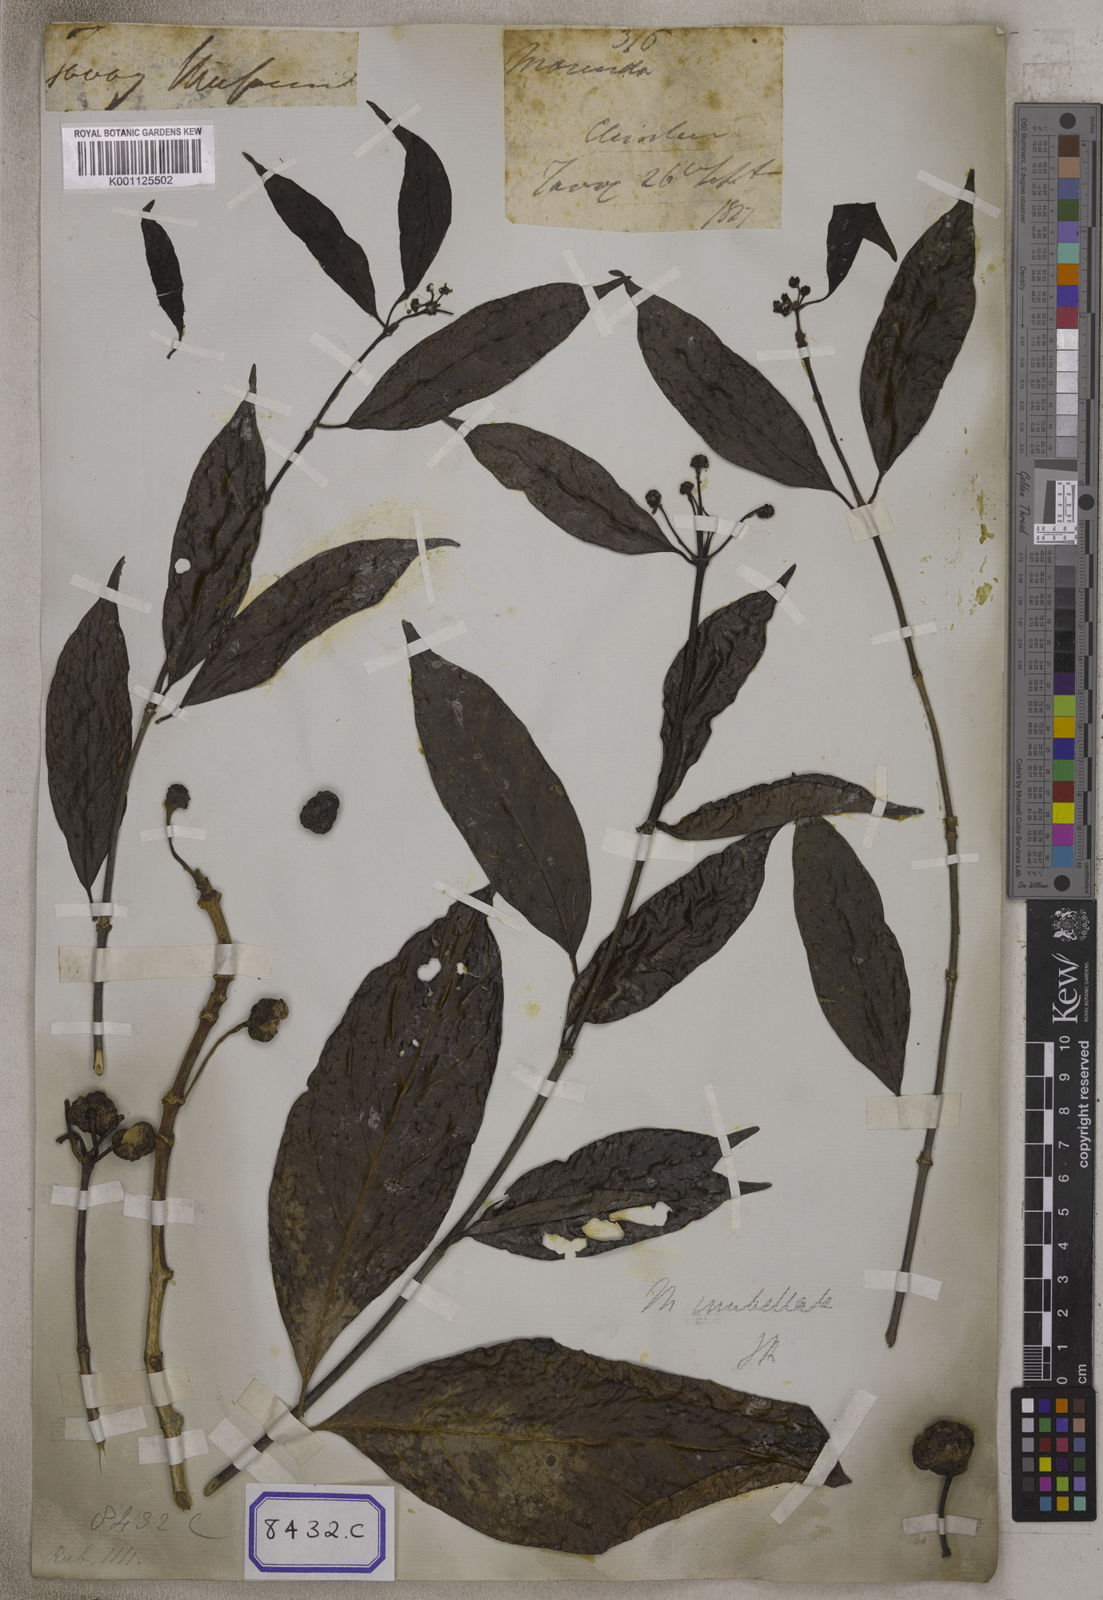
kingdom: Plantae
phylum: Tracheophyta
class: Magnoliopsida
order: Gentianales
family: Rubiaceae
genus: Gynochthodes
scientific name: Gynochthodes umbellata
